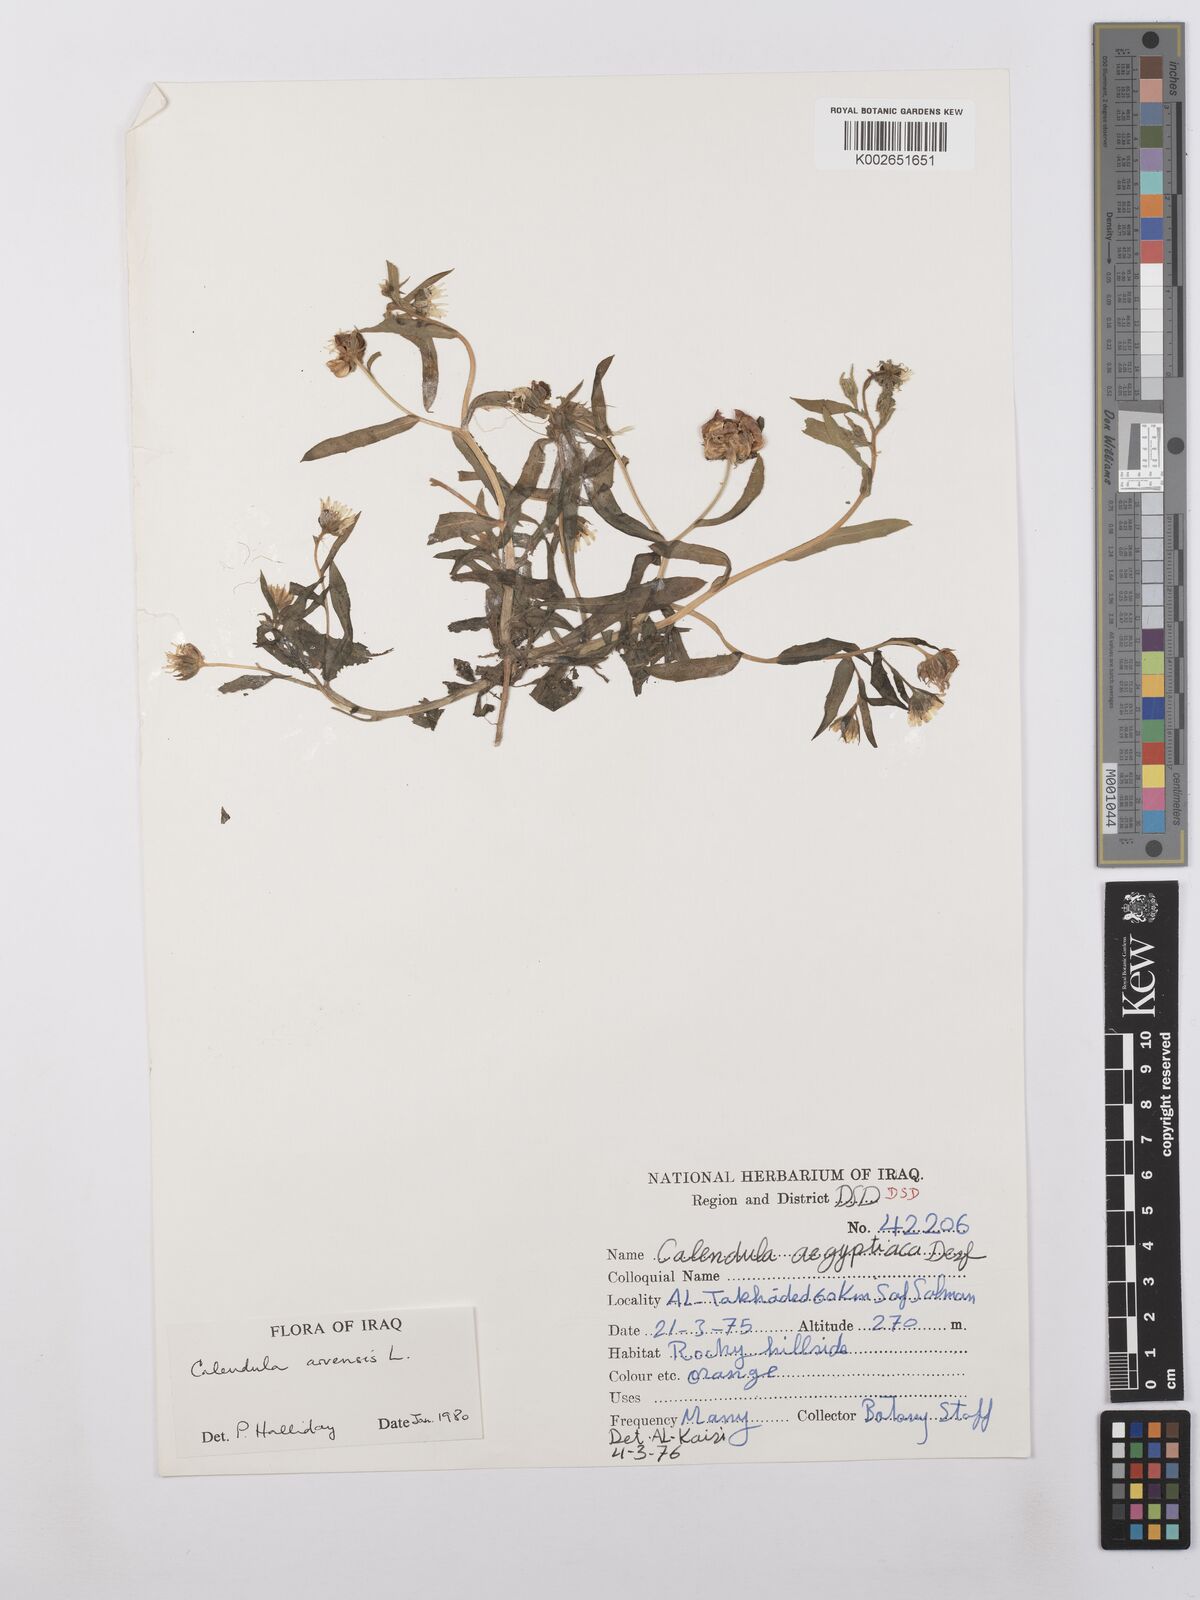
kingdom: Plantae
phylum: Tracheophyta
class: Magnoliopsida
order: Asterales
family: Asteraceae
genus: Calendula
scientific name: Calendula arvensis
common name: Field marigold
